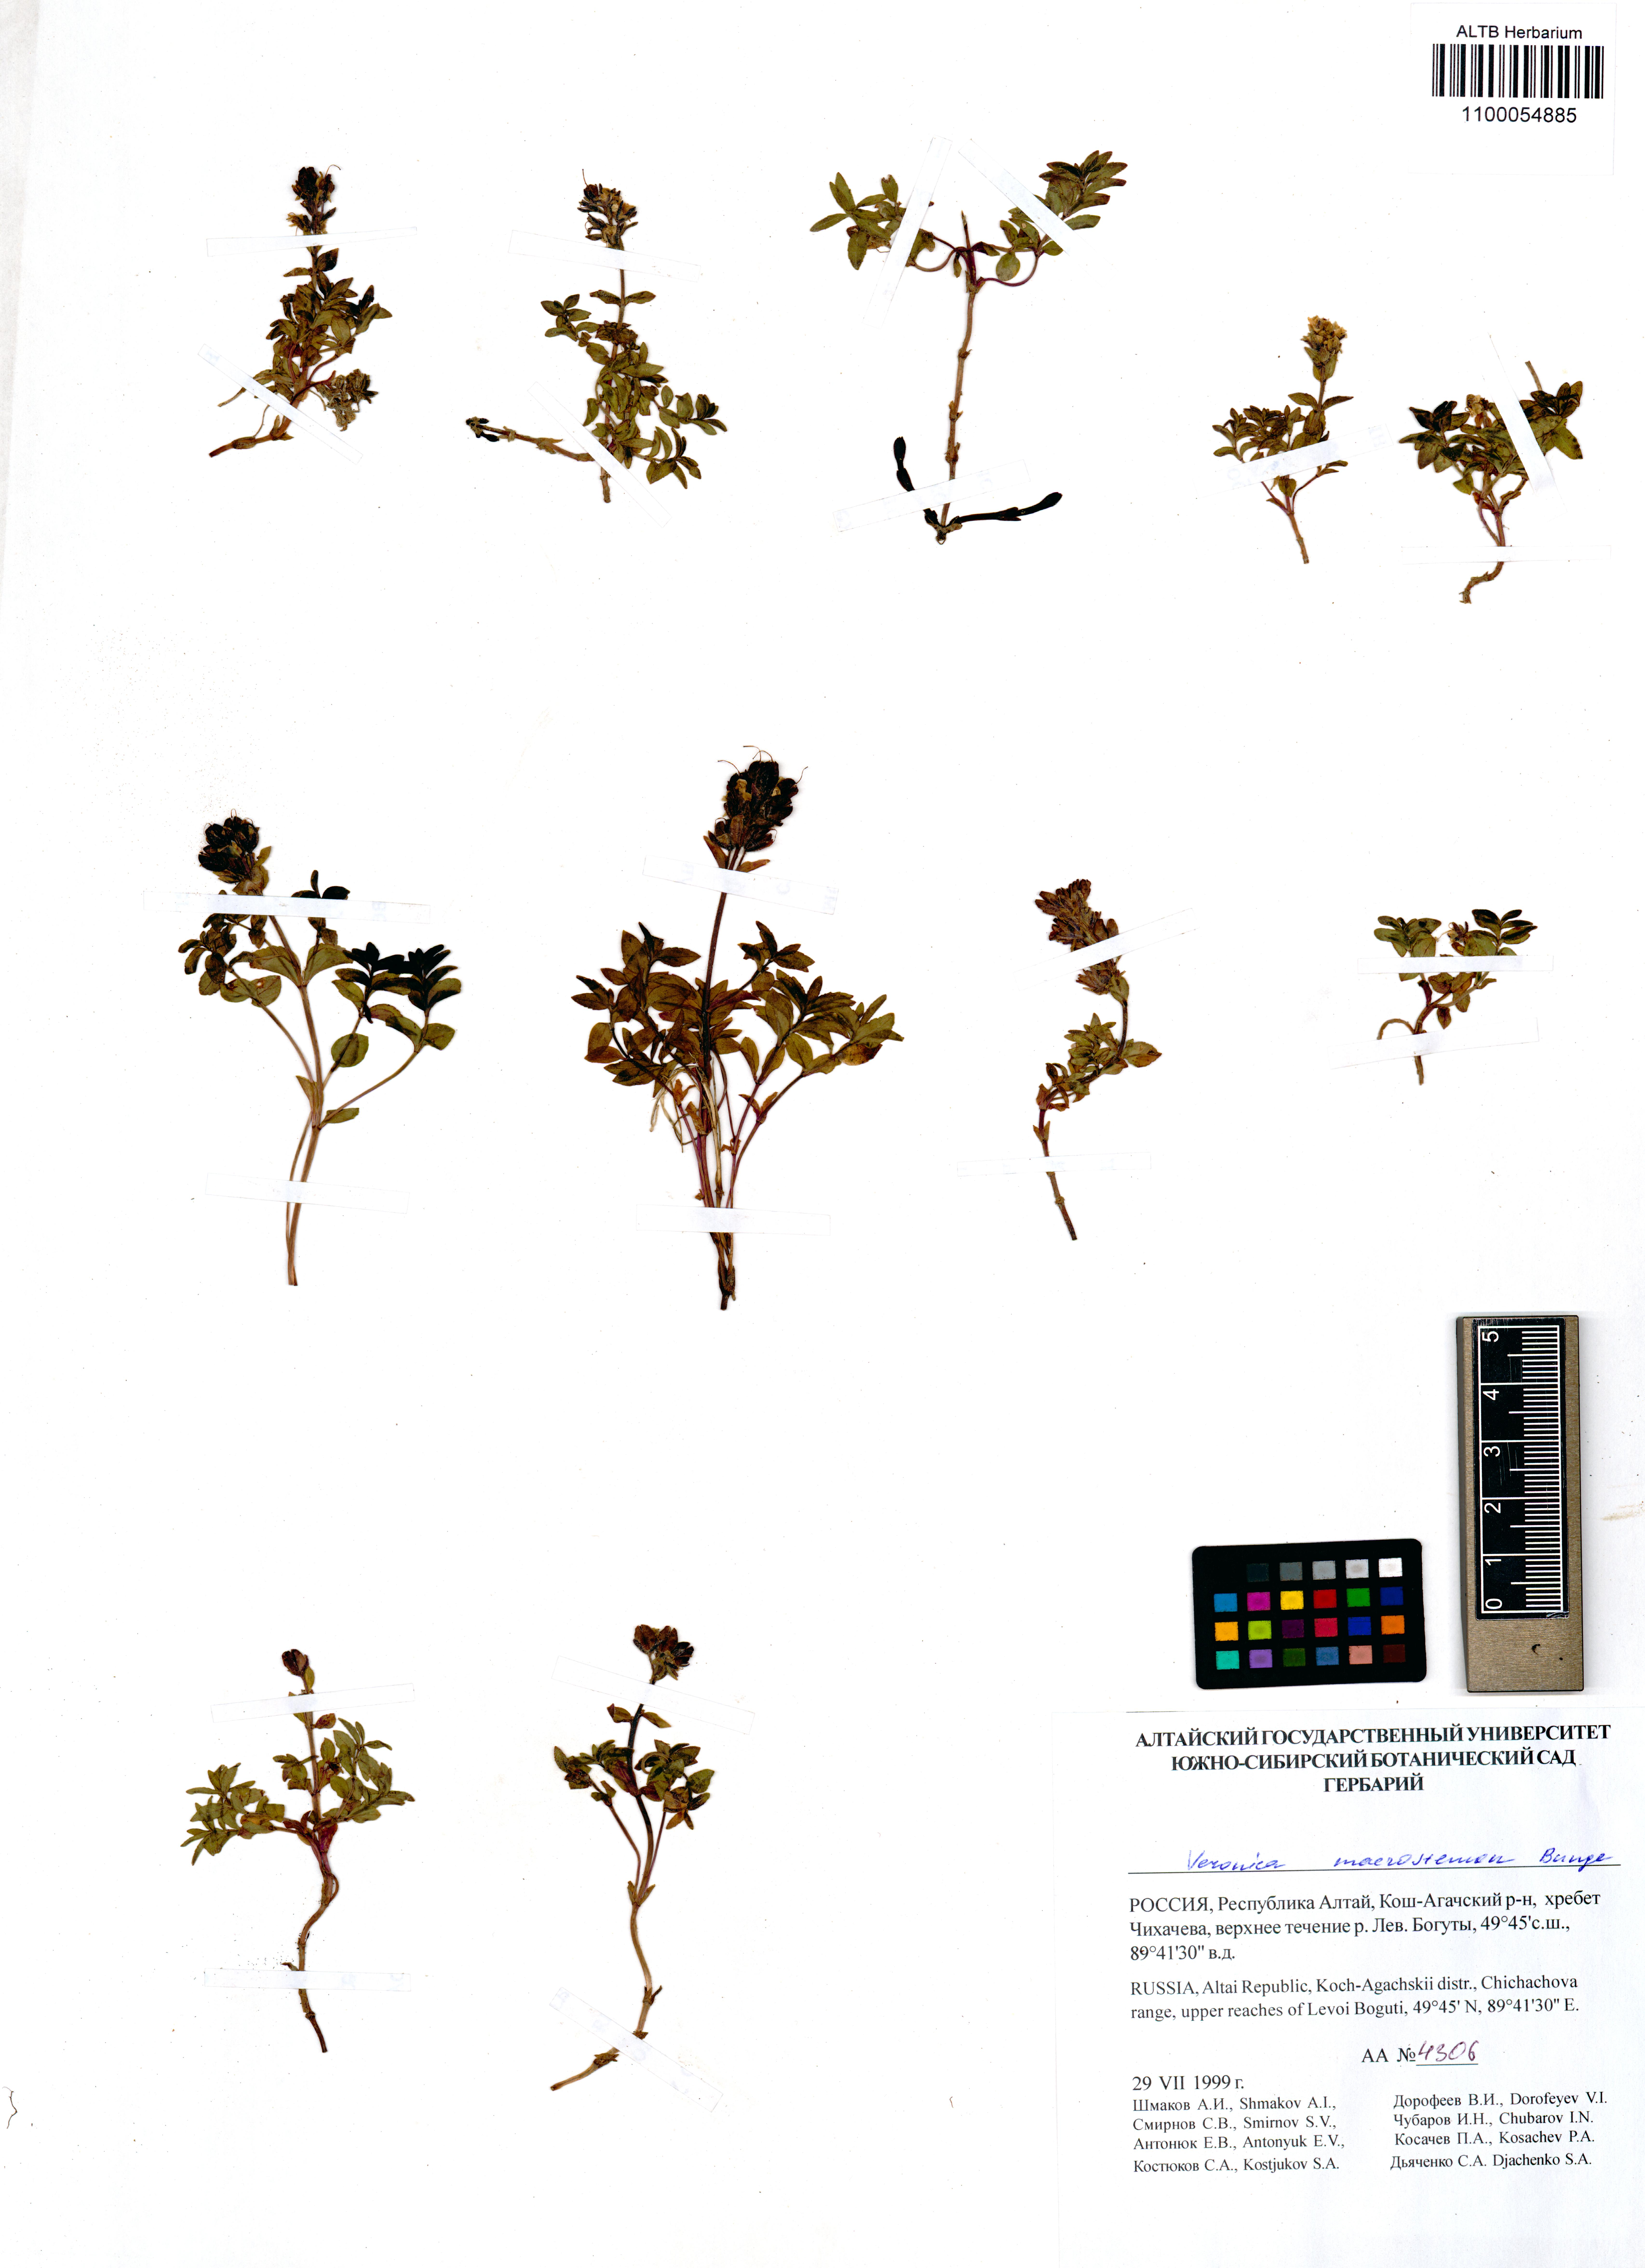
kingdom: Plantae
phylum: Tracheophyta
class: Magnoliopsida
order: Lamiales
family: Plantaginaceae
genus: Veronica
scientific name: Veronica macrostemon
